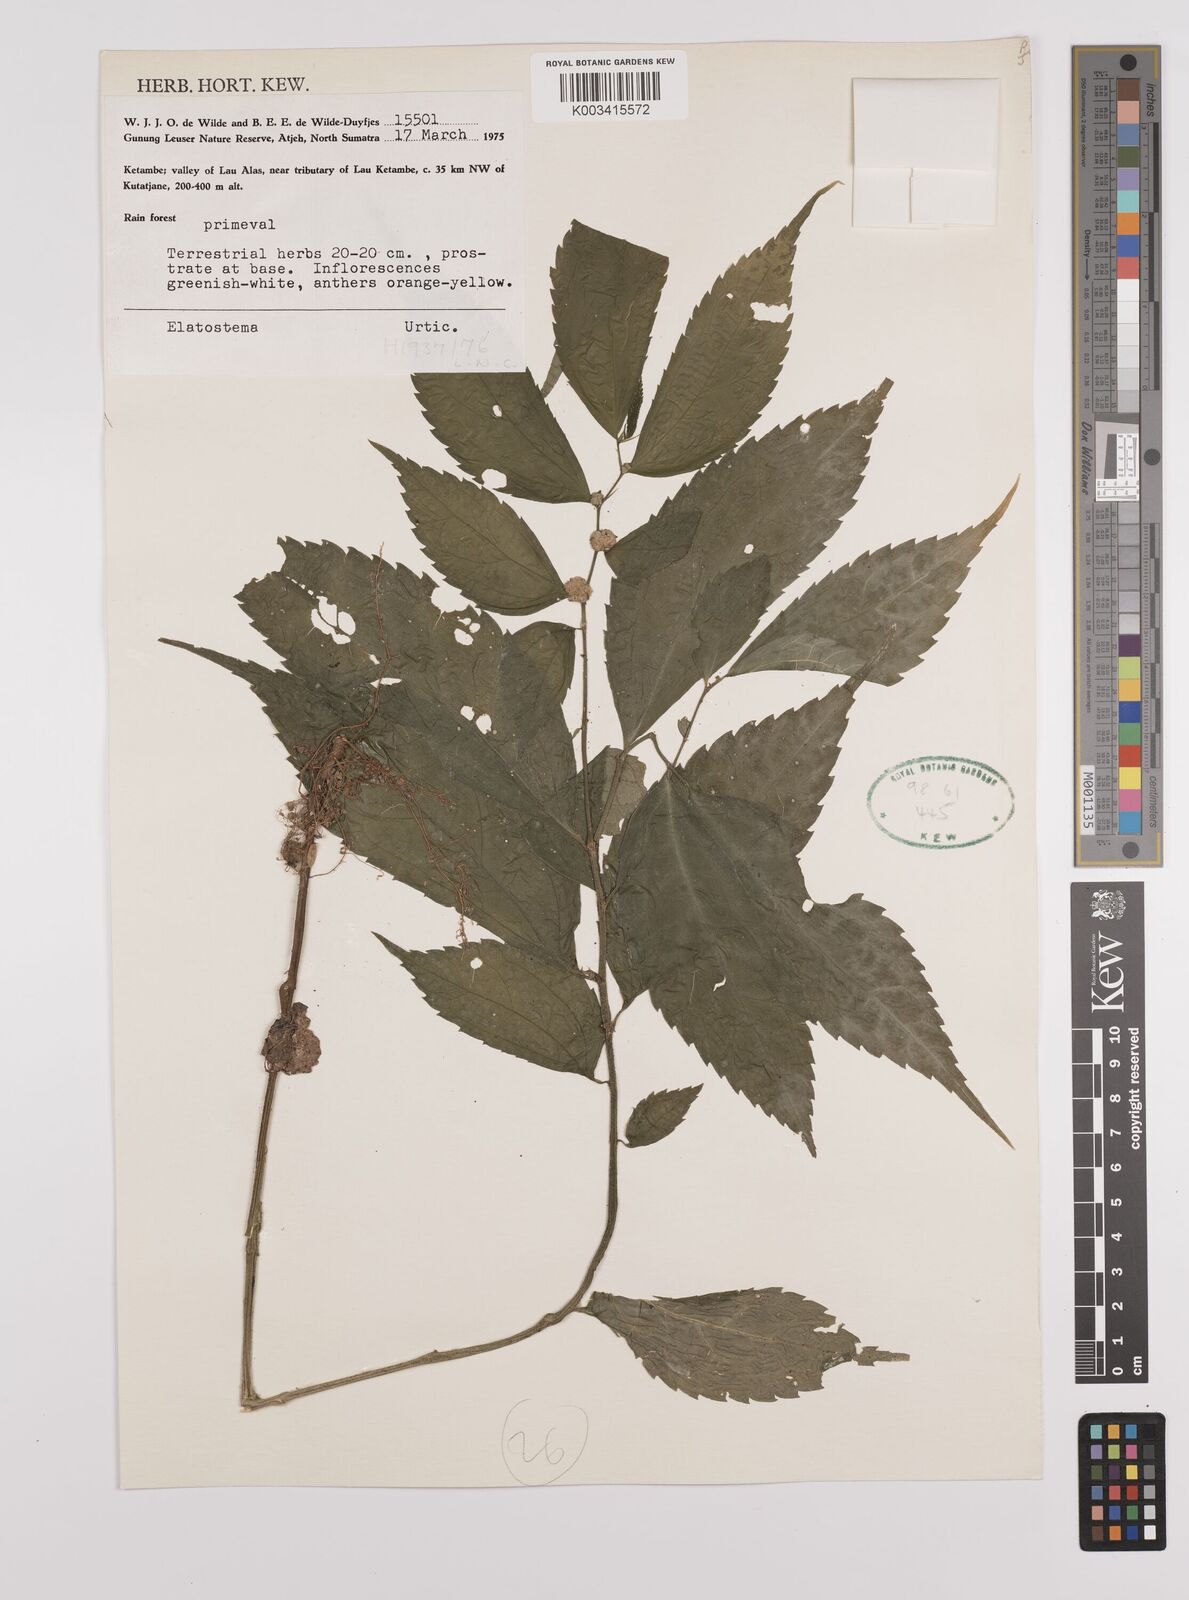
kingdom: Plantae
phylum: Tracheophyta
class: Magnoliopsida
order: Rosales
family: Urticaceae
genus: Elatostema
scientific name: Elatostema
